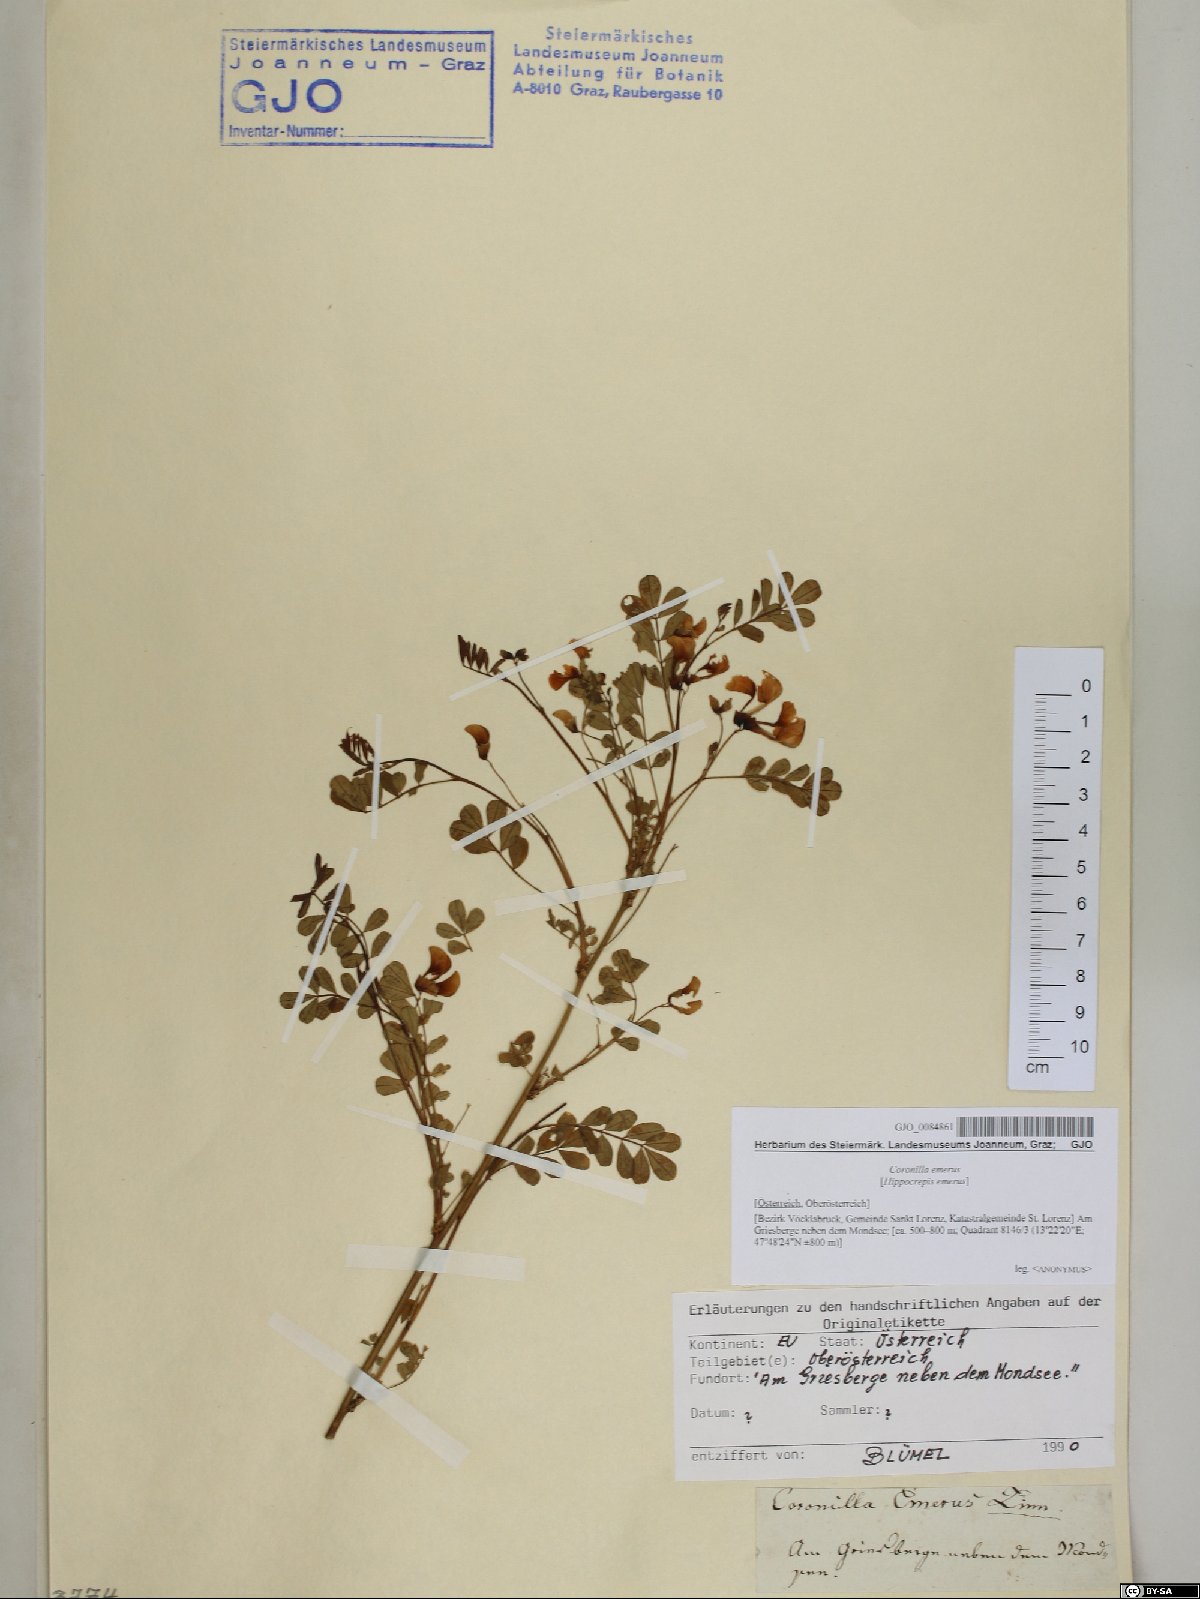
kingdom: Plantae
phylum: Tracheophyta
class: Magnoliopsida
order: Fabales
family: Fabaceae
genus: Hippocrepis
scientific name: Hippocrepis emerus
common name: Scorpion senna
